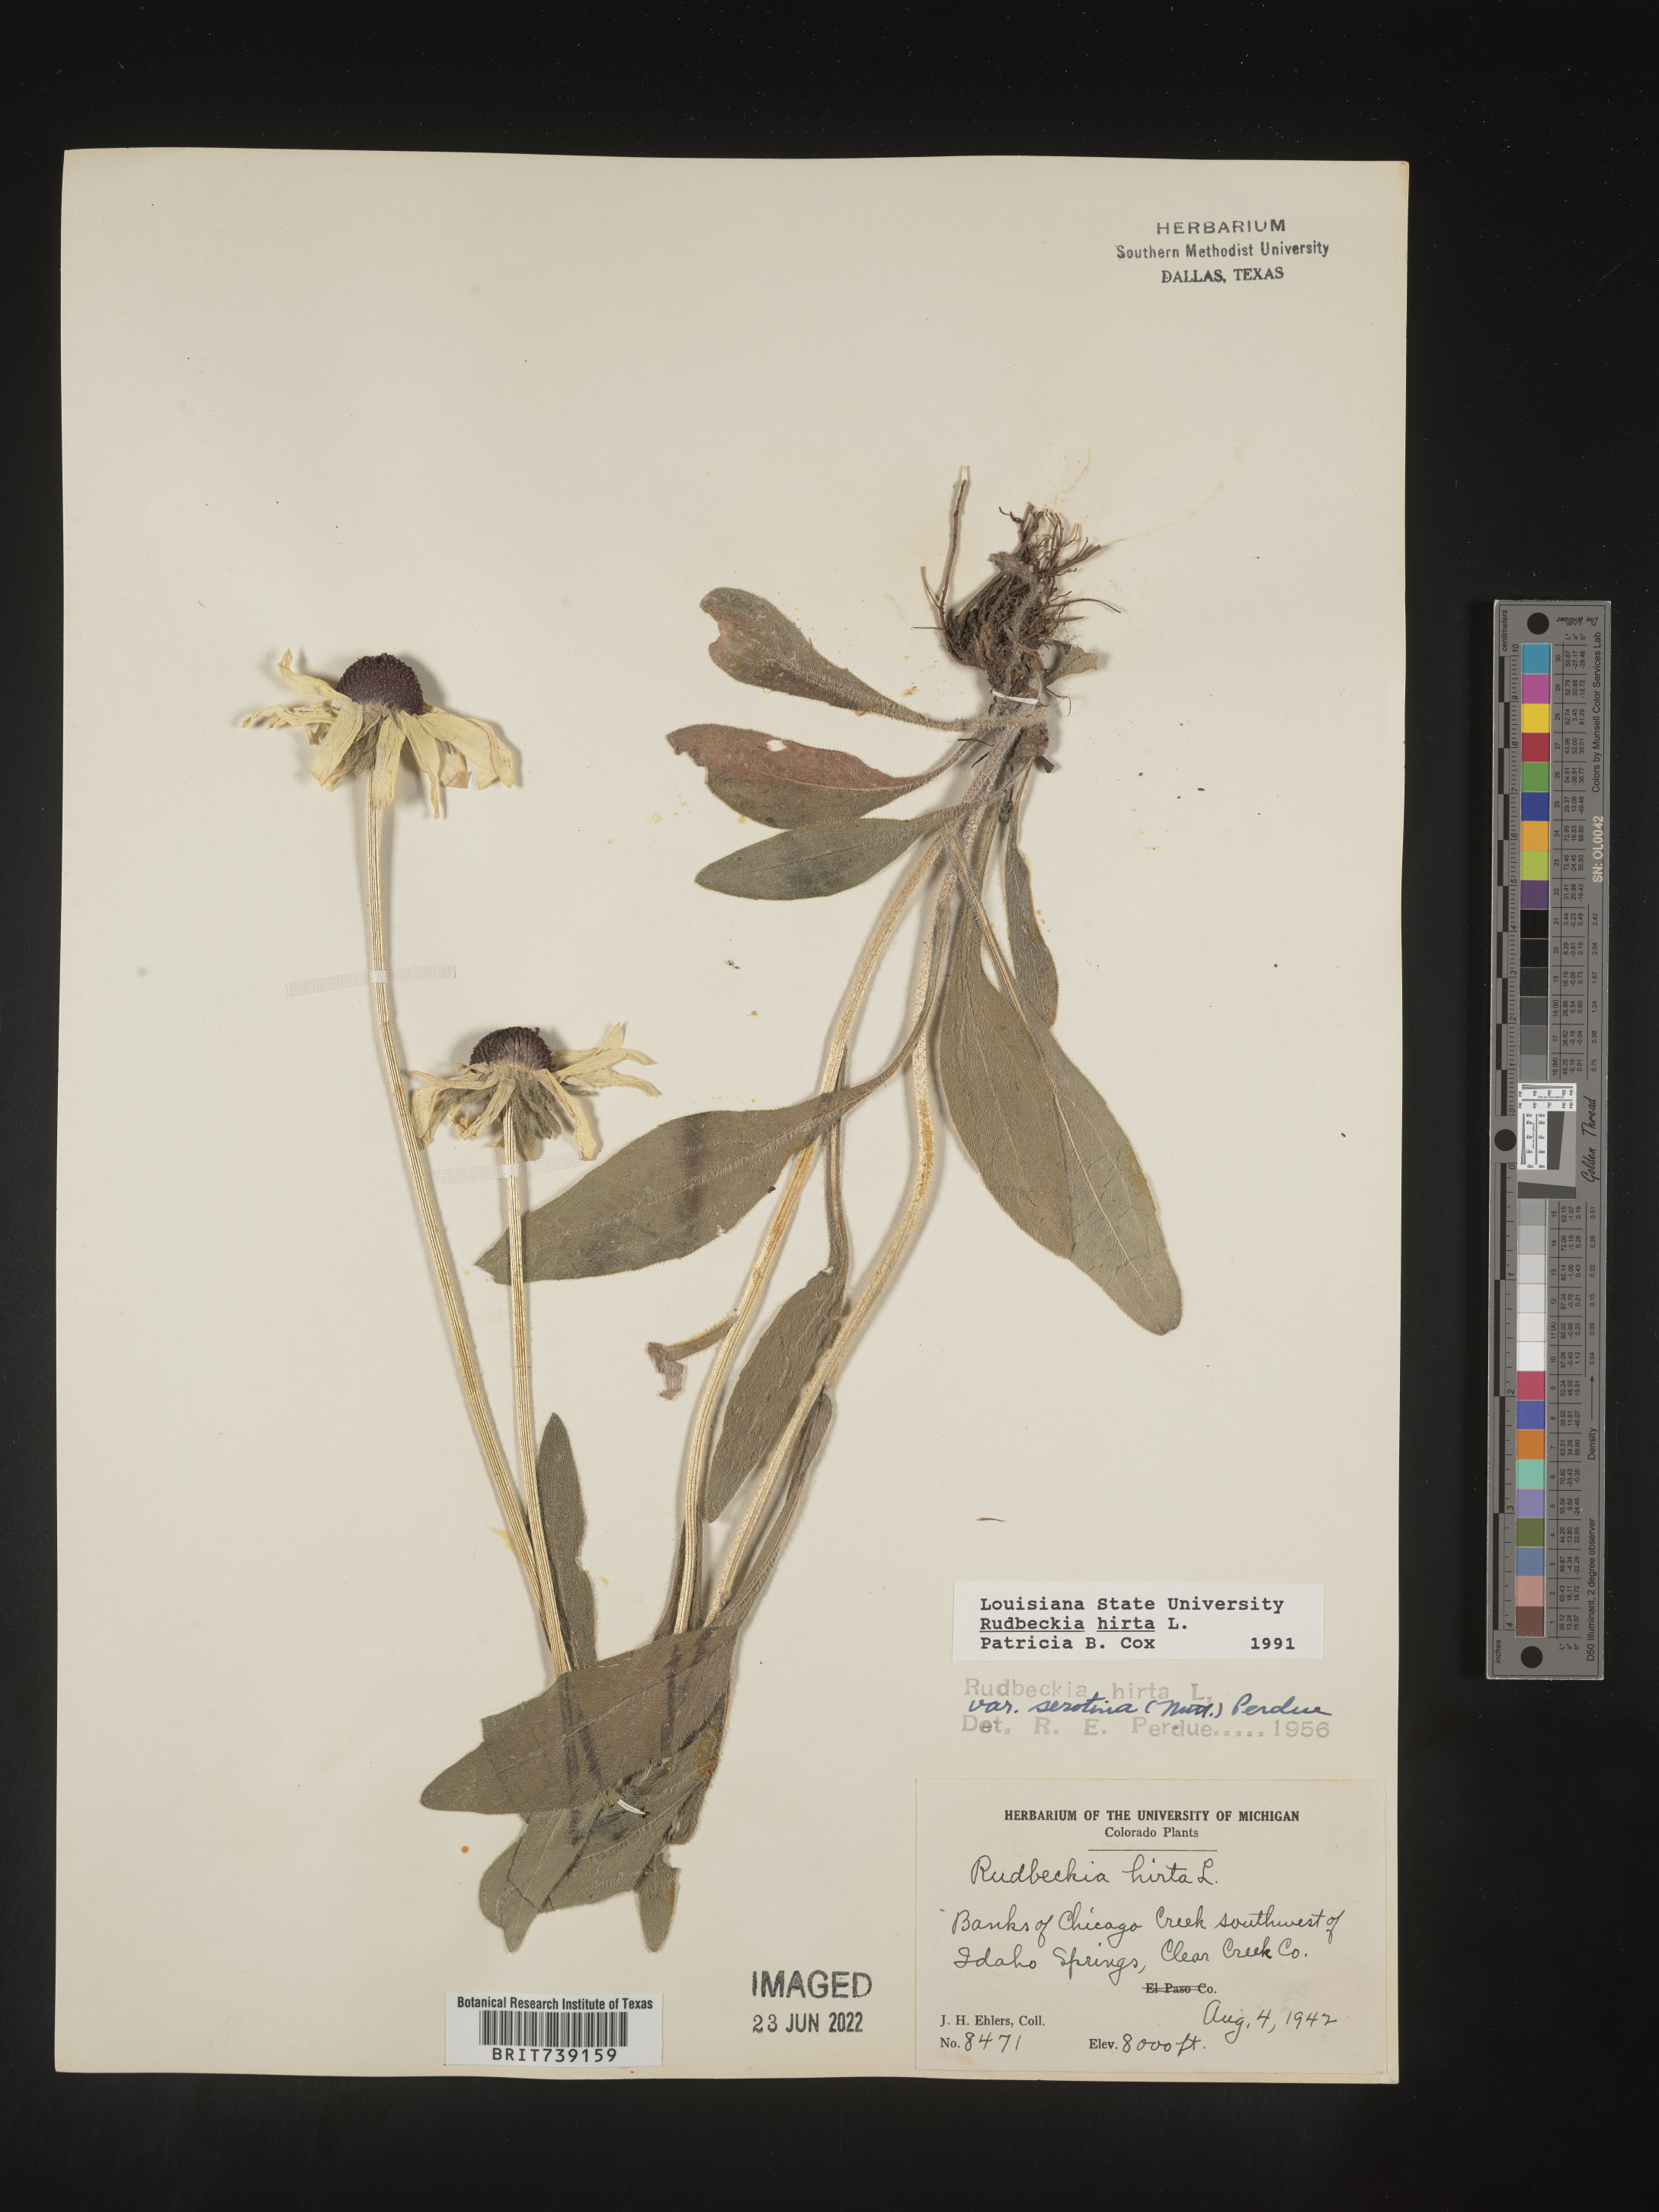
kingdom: Plantae
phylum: Tracheophyta
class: Magnoliopsida
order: Asterales
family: Asteraceae
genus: Rudbeckia
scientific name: Rudbeckia hirta
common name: Black-eyed-susan
